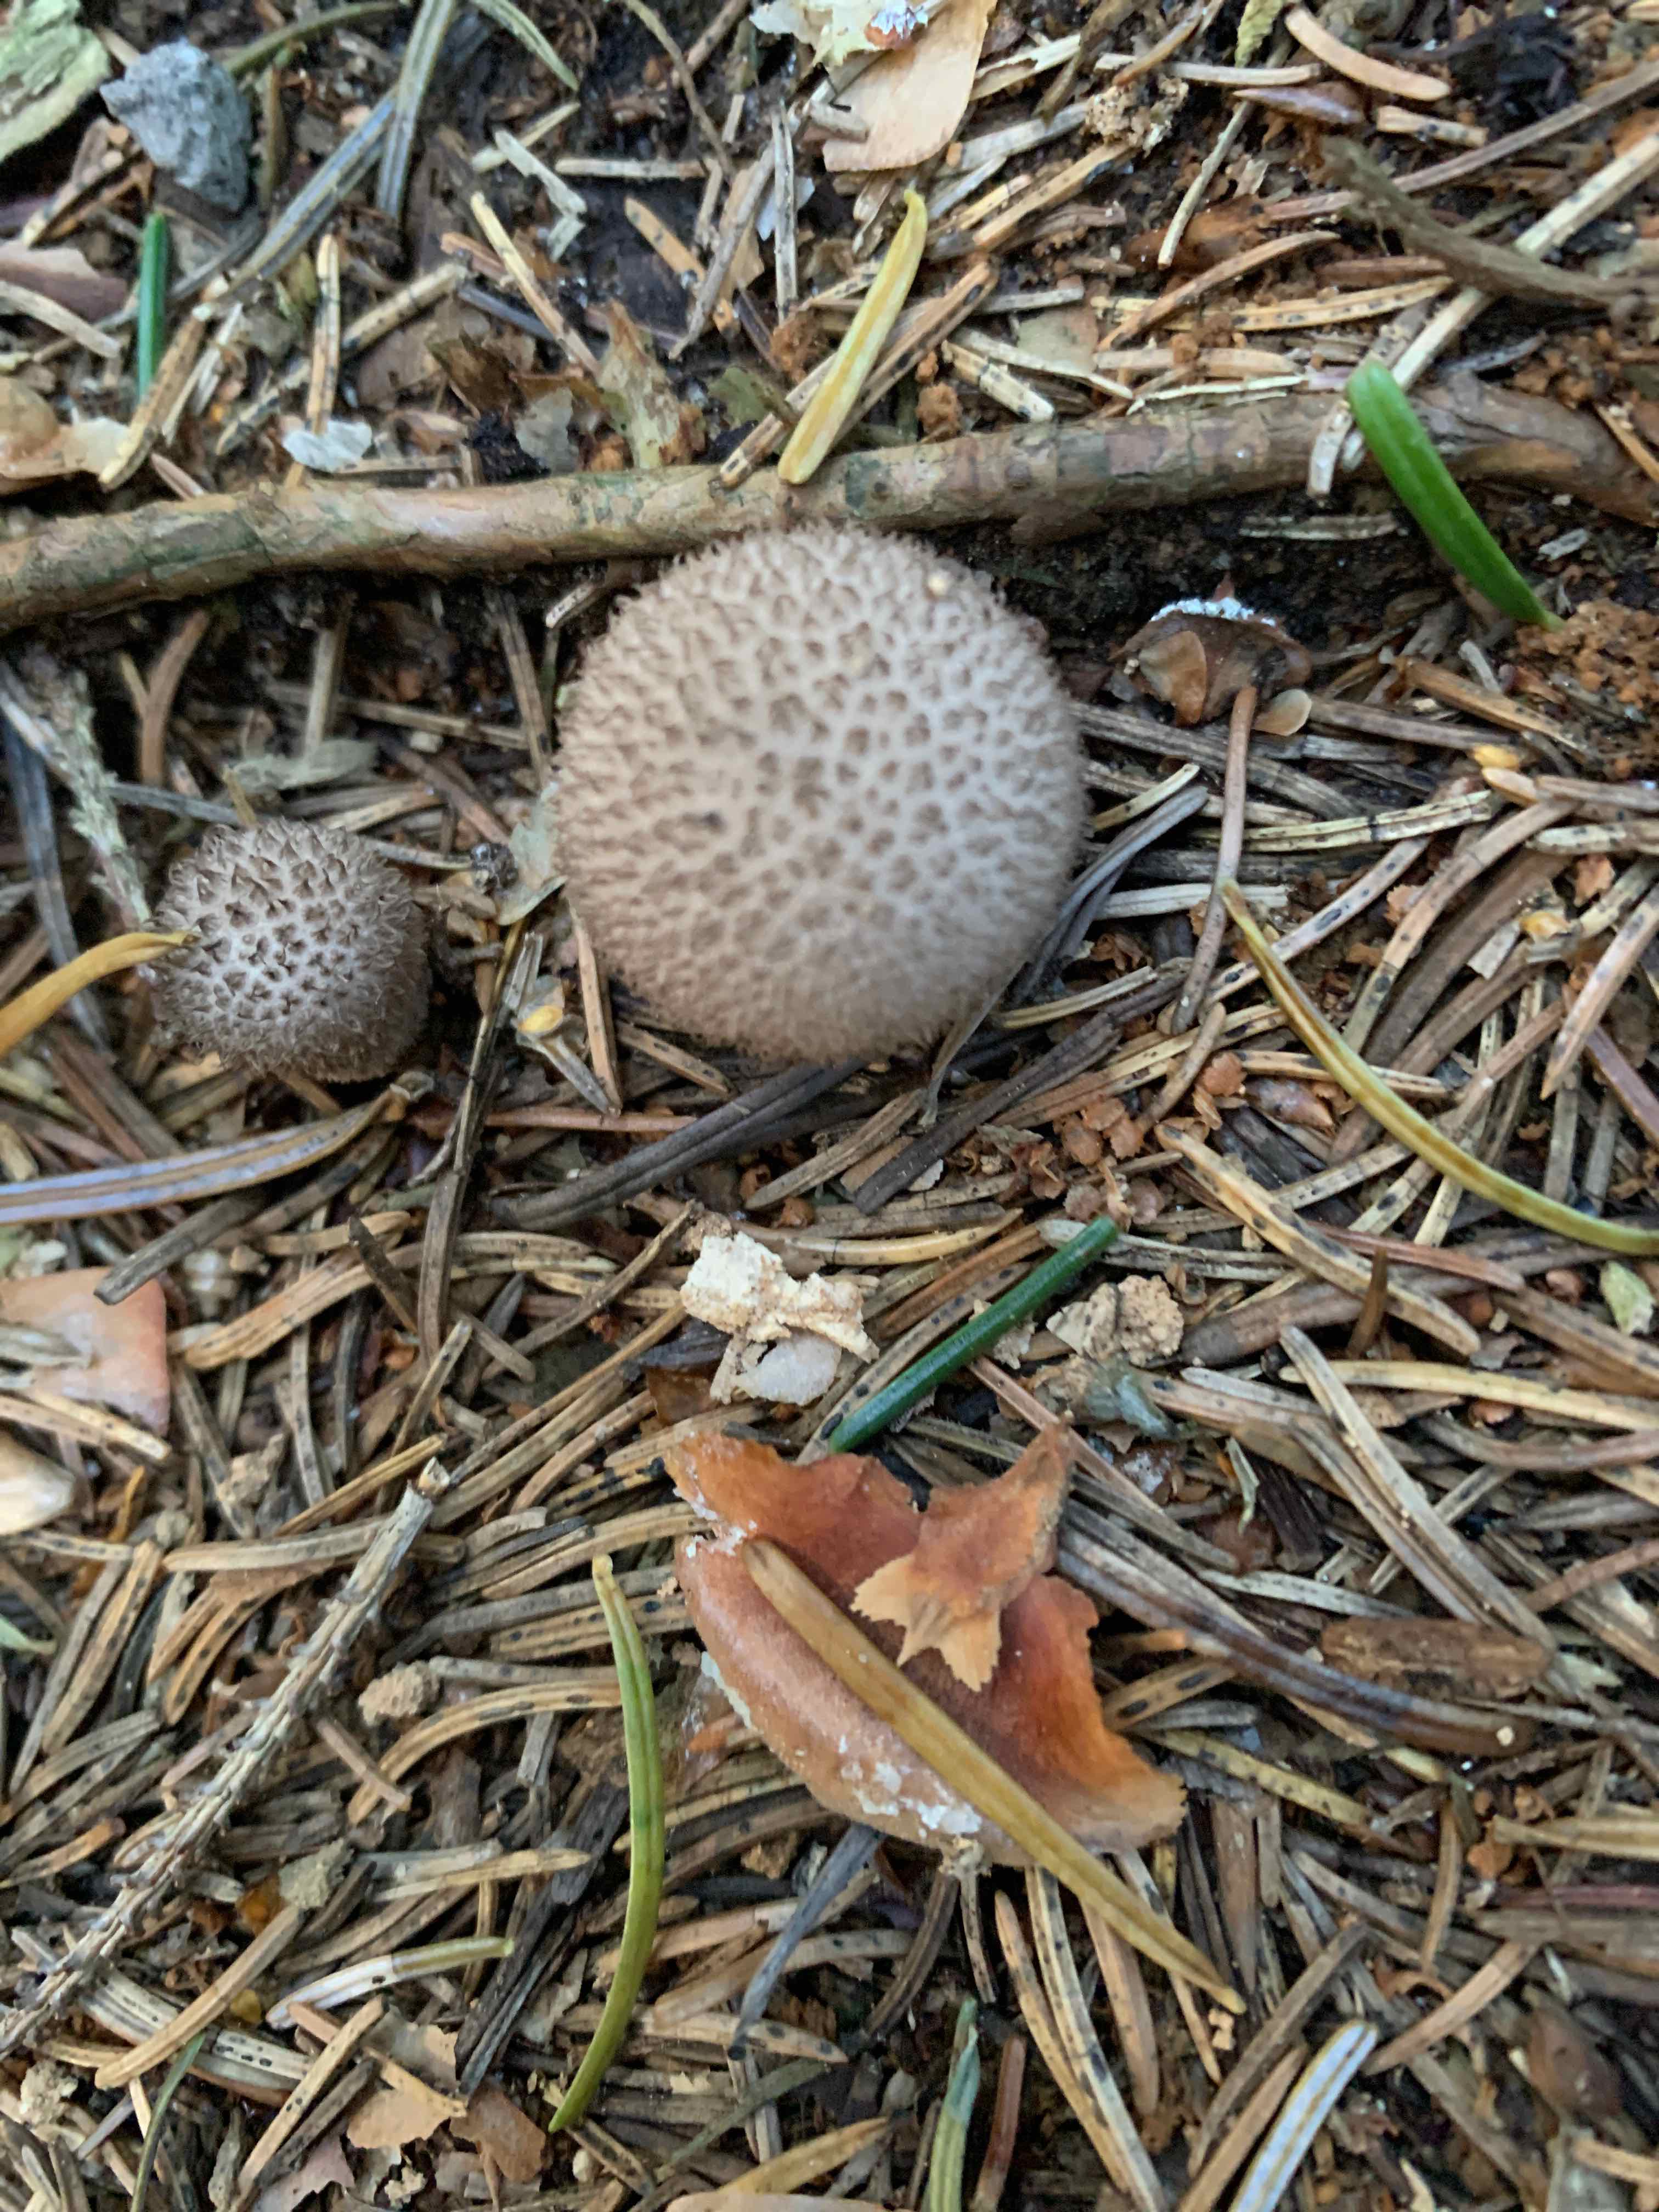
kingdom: Fungi
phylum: Basidiomycota
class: Agaricomycetes
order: Agaricales
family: Lycoperdaceae
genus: Lycoperdon
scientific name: Lycoperdon nigrescens
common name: sortagtig støvbold
